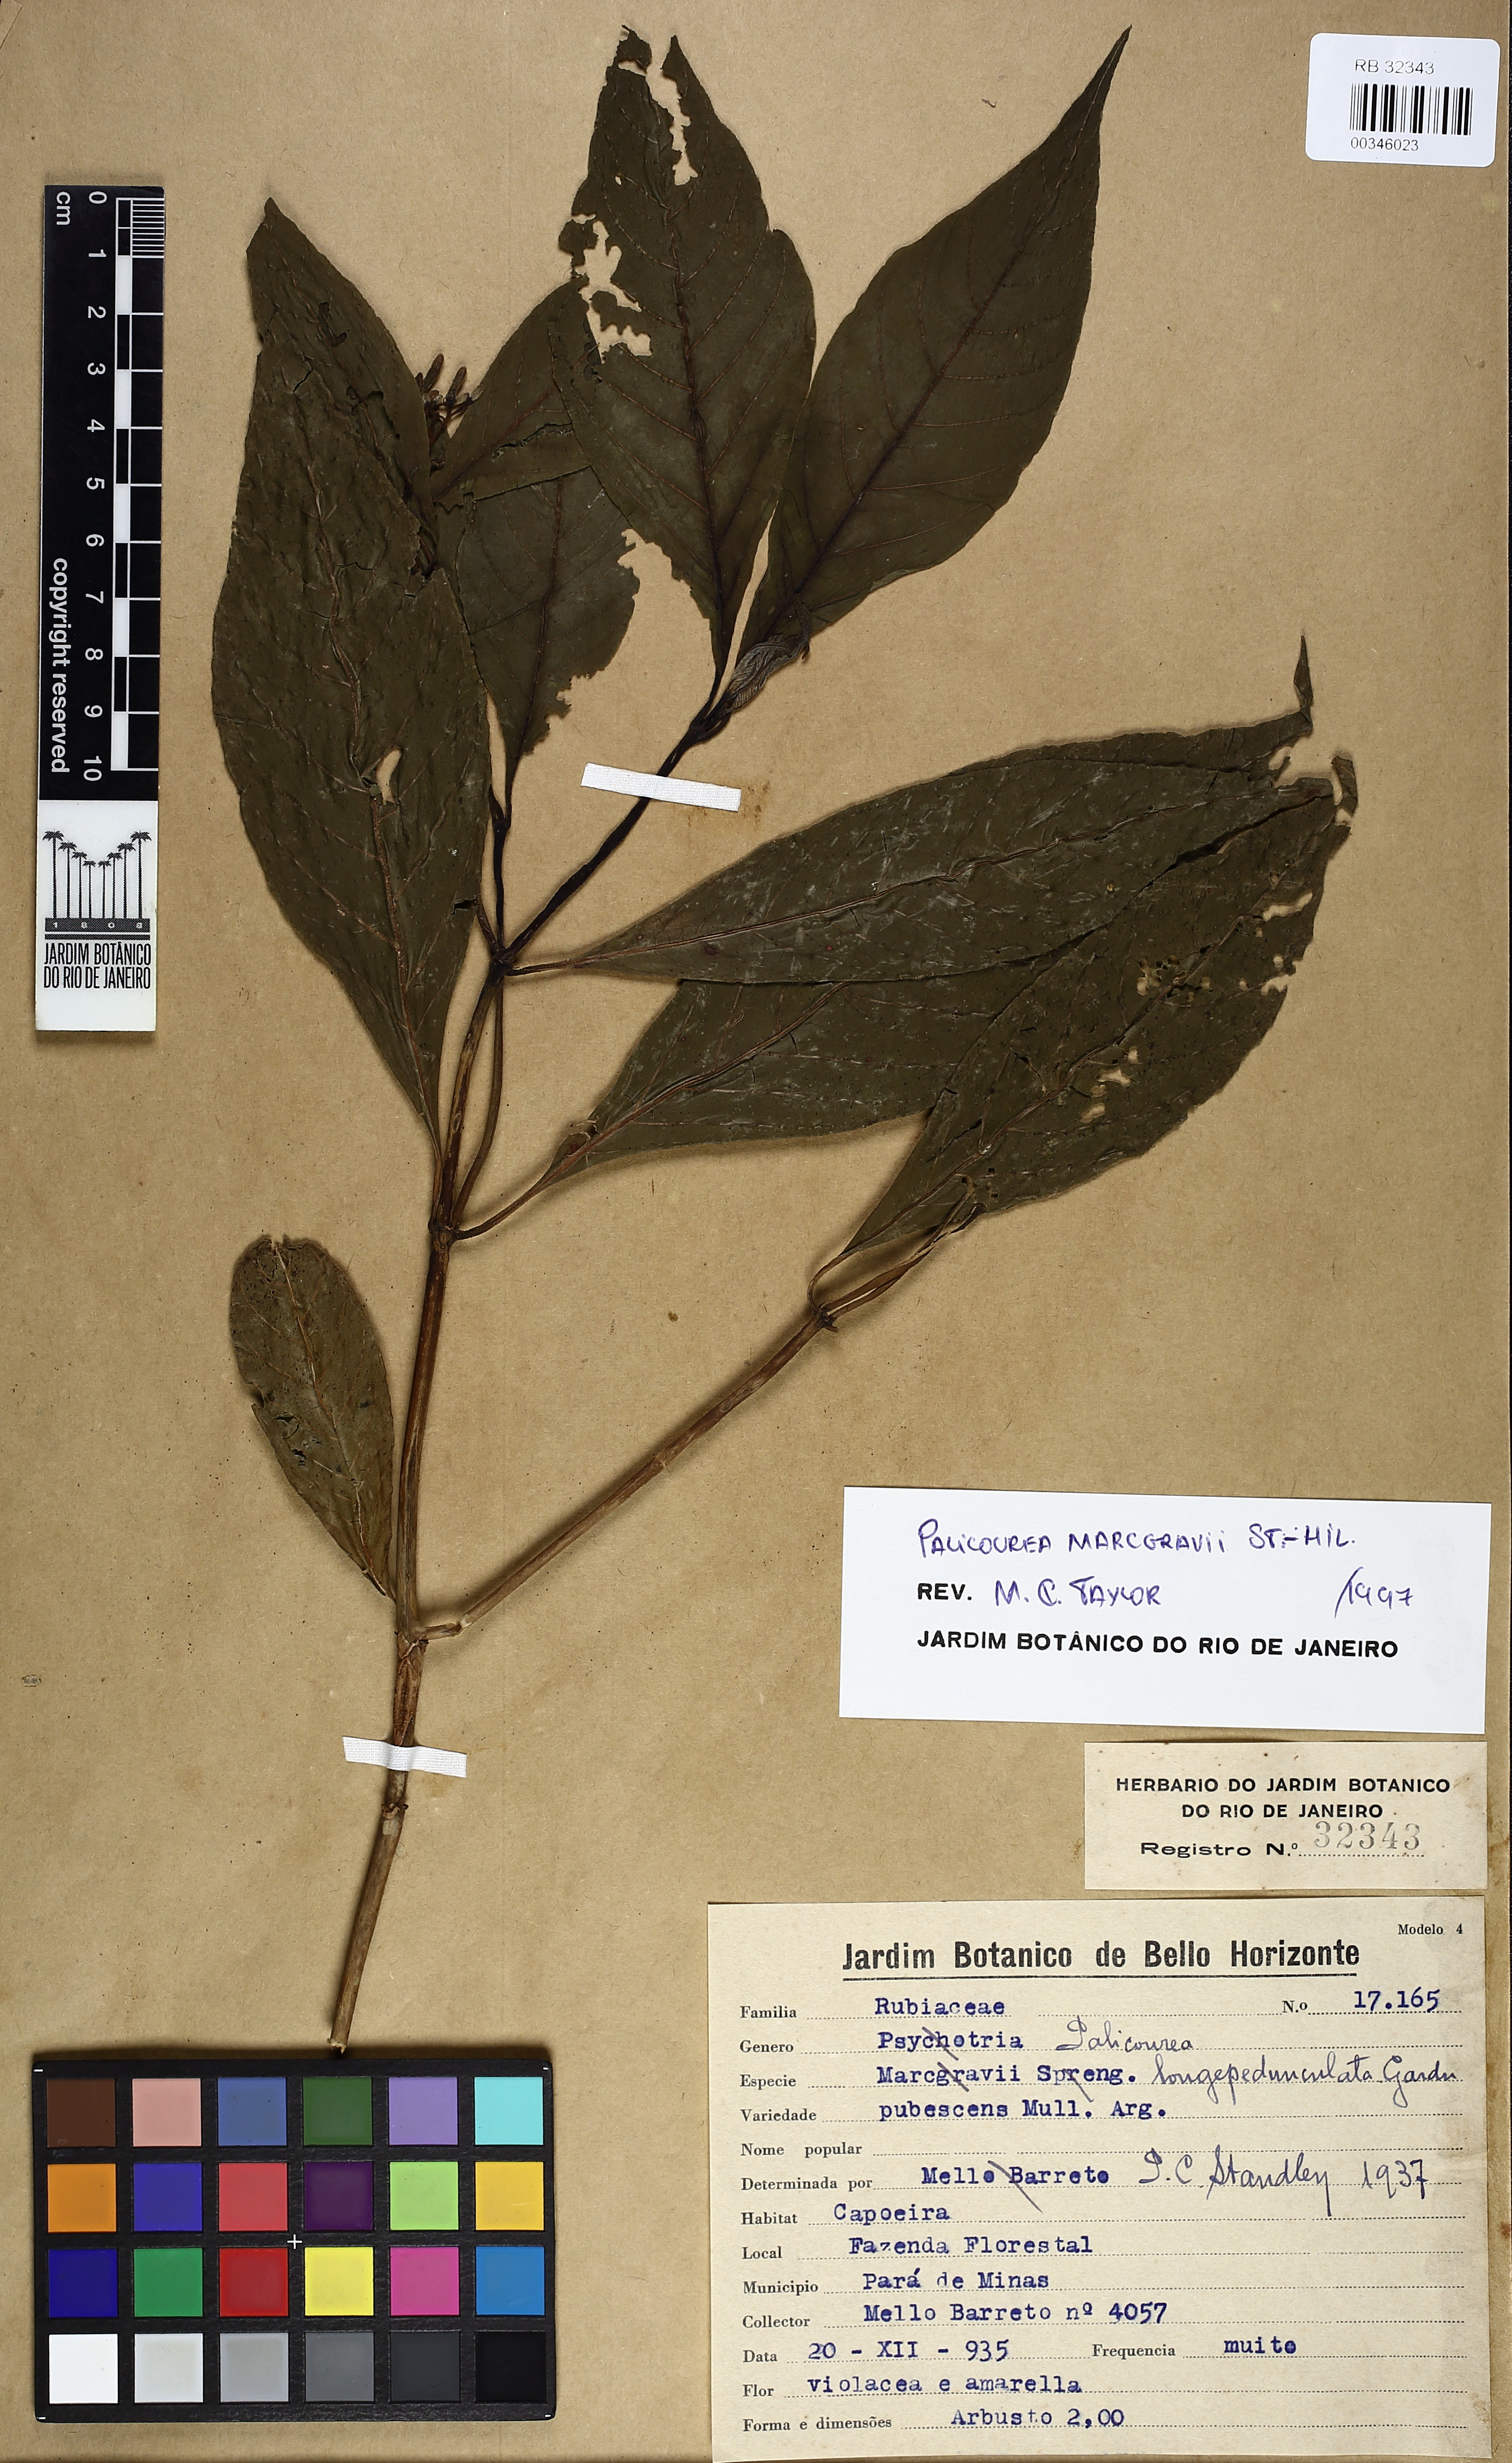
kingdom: Plantae
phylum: Tracheophyta
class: Magnoliopsida
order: Gentianales
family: Rubiaceae
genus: Palicourea
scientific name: Palicourea marcgravii
